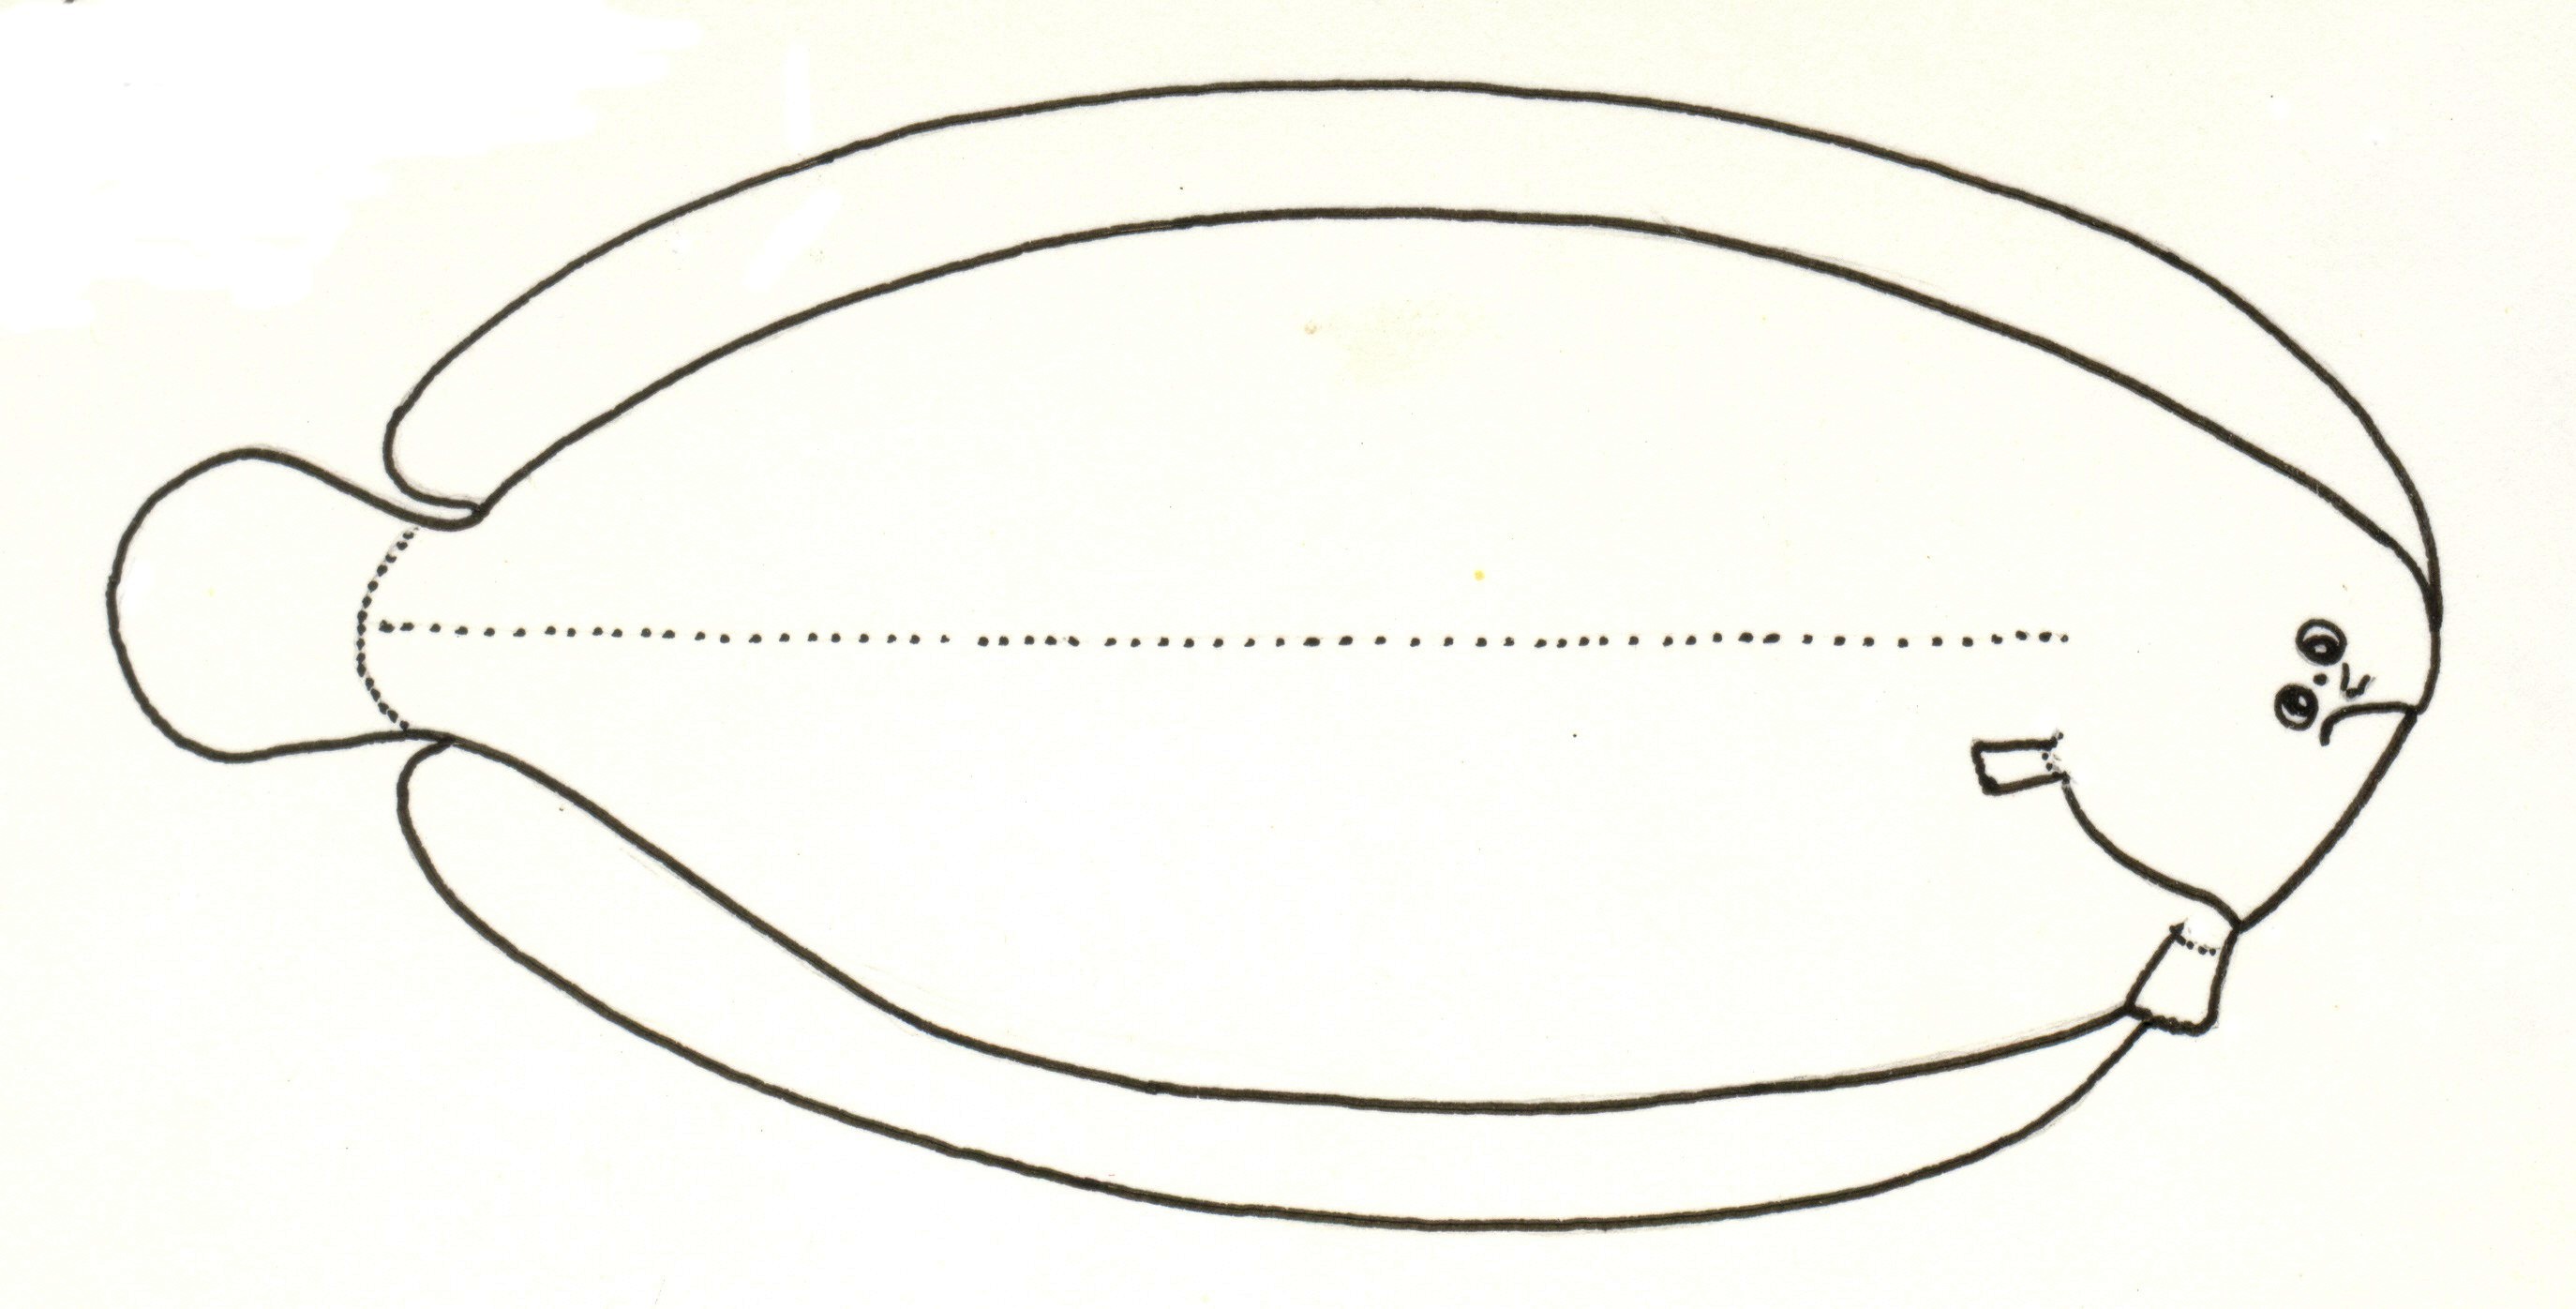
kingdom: Animalia
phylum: Chordata
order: Pleuronectiformes
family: Soleidae
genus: Barnardichthys
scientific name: Barnardichthys fulvomarginata
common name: Lemon sole
